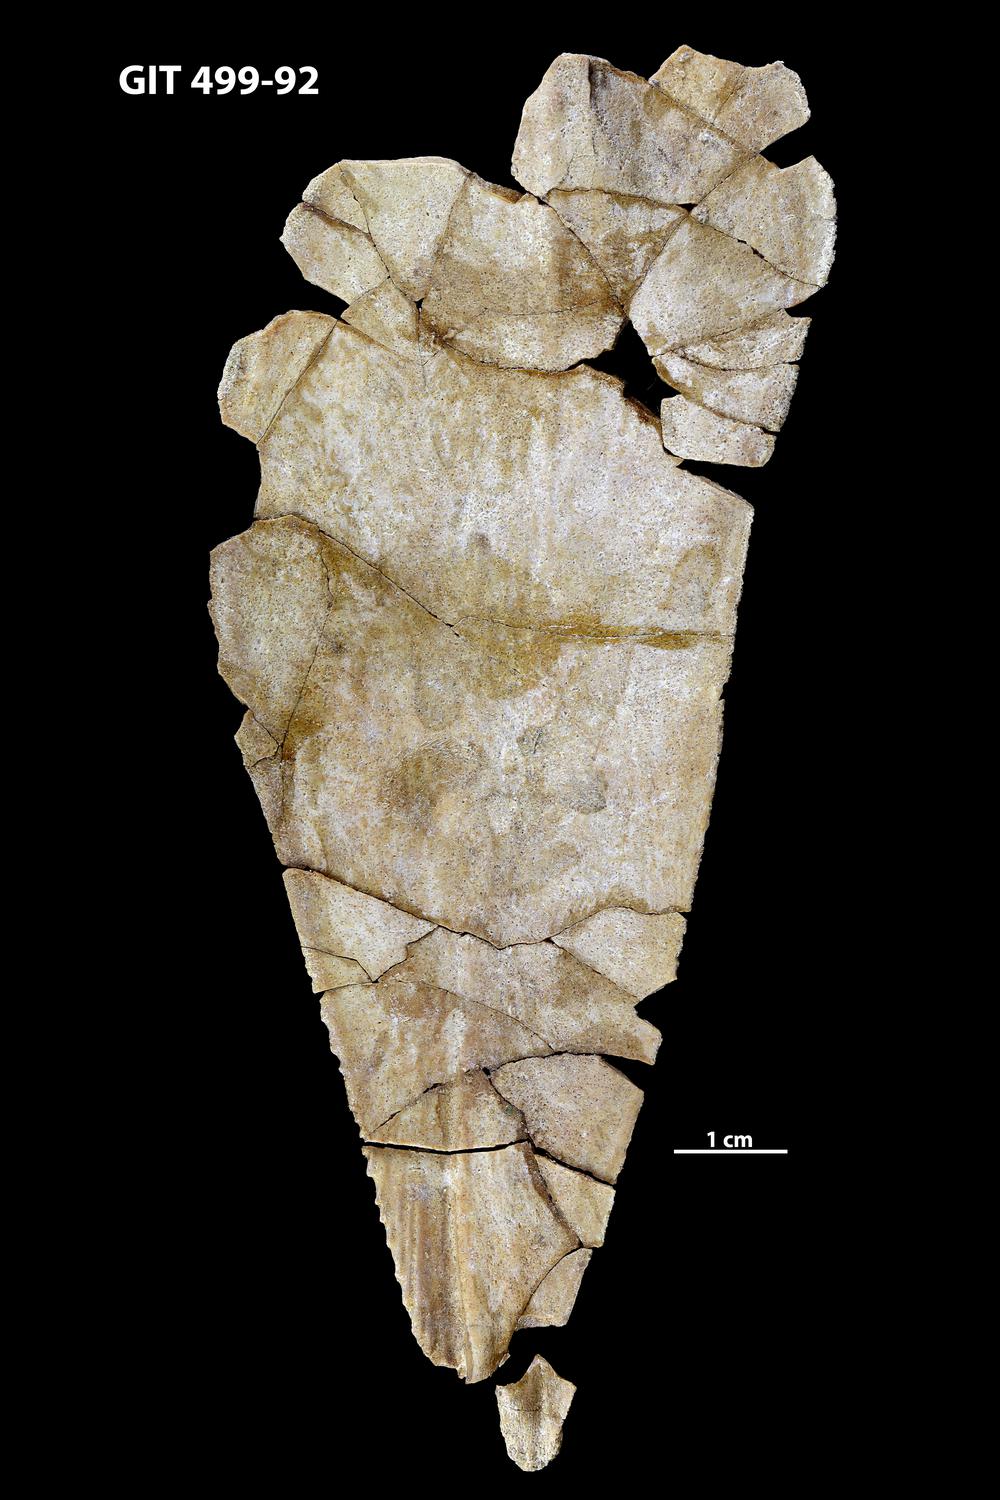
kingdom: Animalia
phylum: Chordata
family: Holoptychiidae
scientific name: Holoptychiidae
